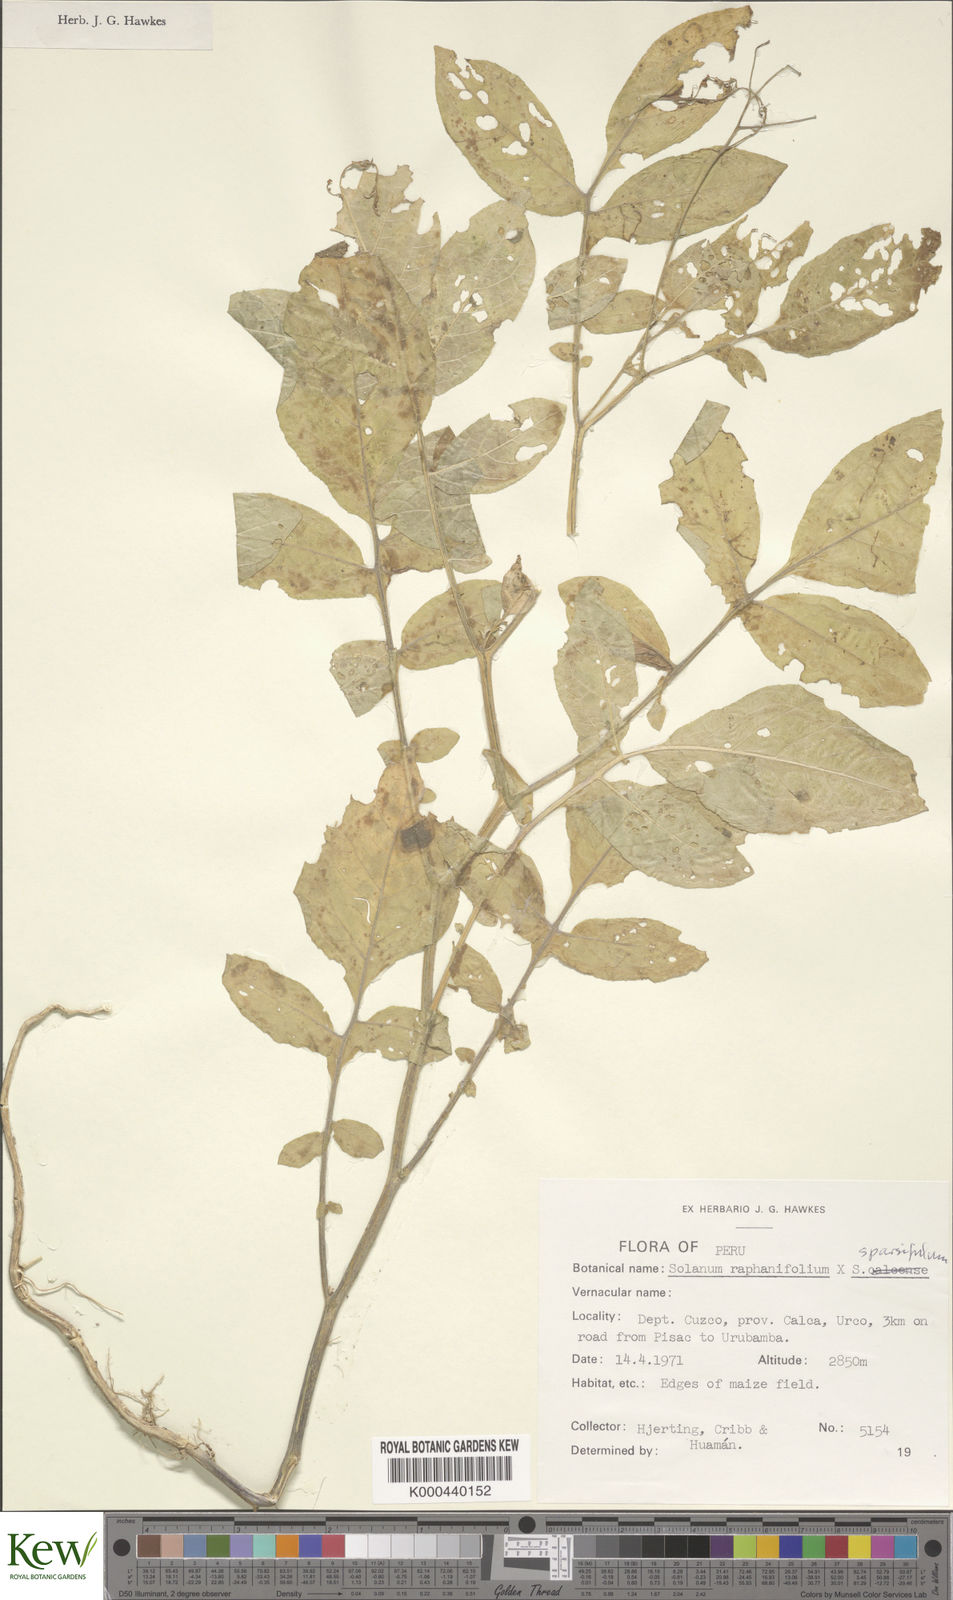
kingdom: Plantae
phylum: Tracheophyta
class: Magnoliopsida
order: Solanales
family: Solanaceae
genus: Solanum
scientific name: Solanum
